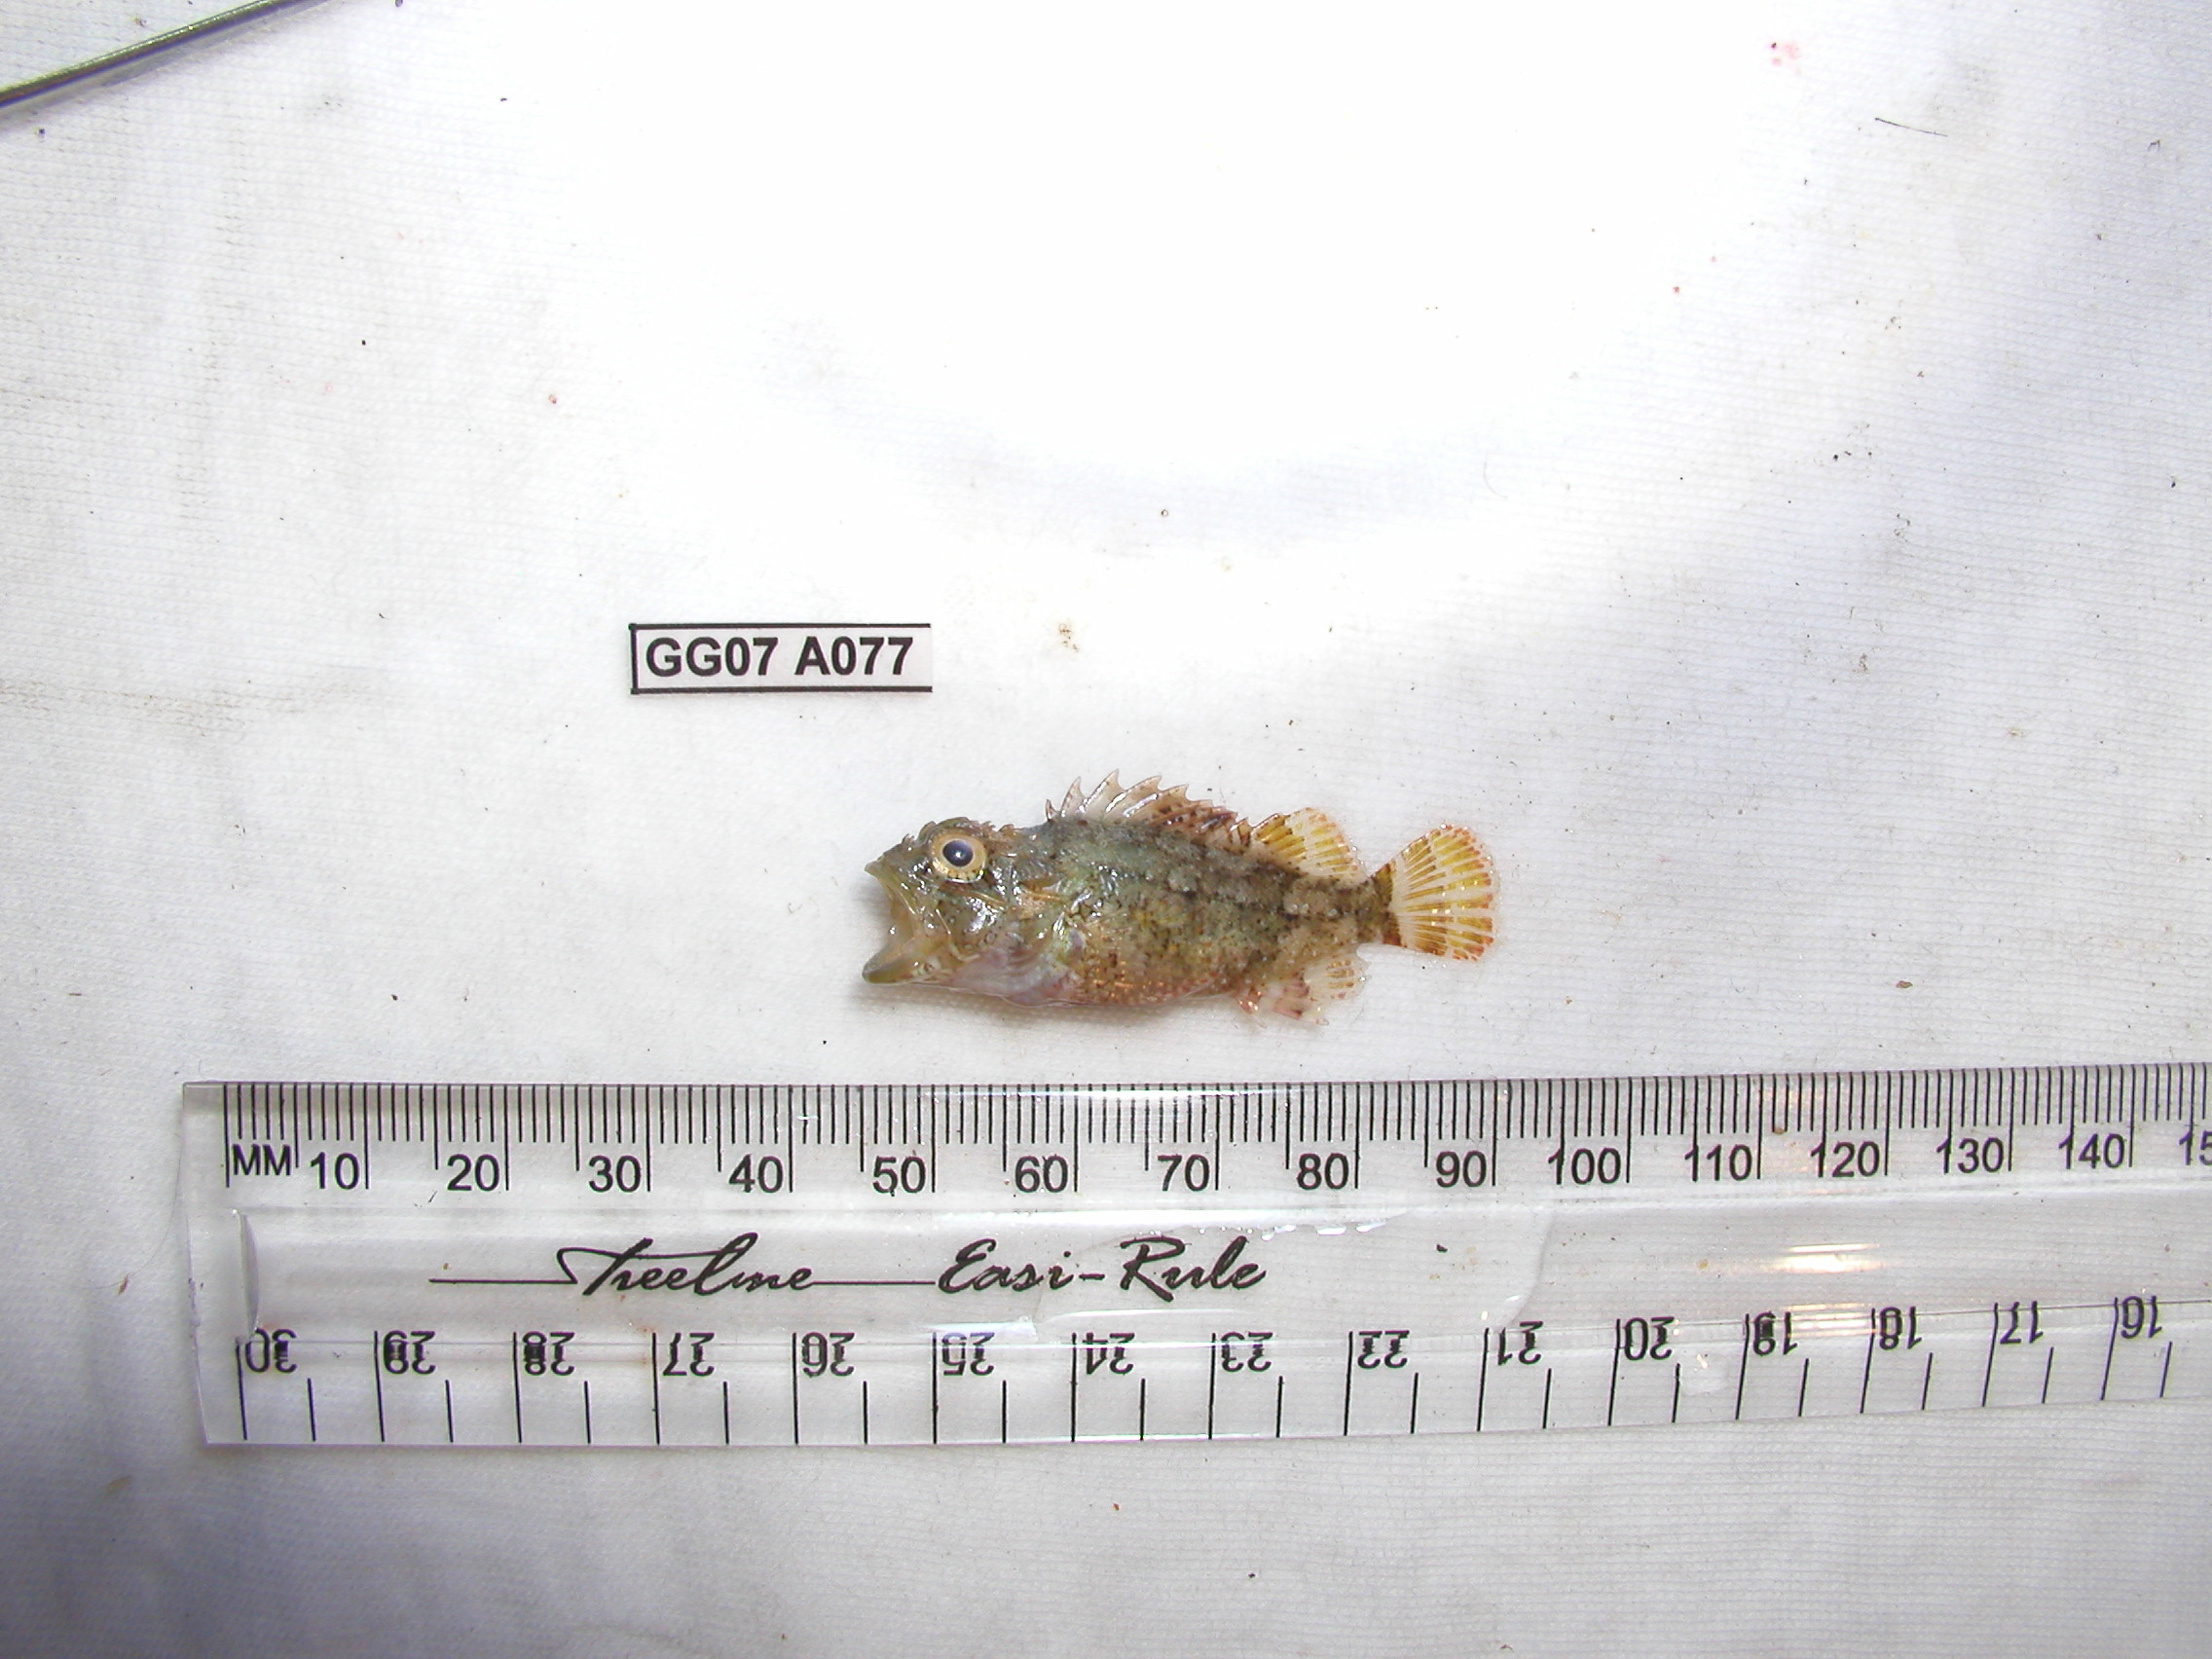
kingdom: Animalia
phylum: Chordata
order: Scorpaeniformes
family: Scorpaenidae
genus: Parascorpaena
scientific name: Parascorpaena mcadamsi
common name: Ocellated scorpionfish
